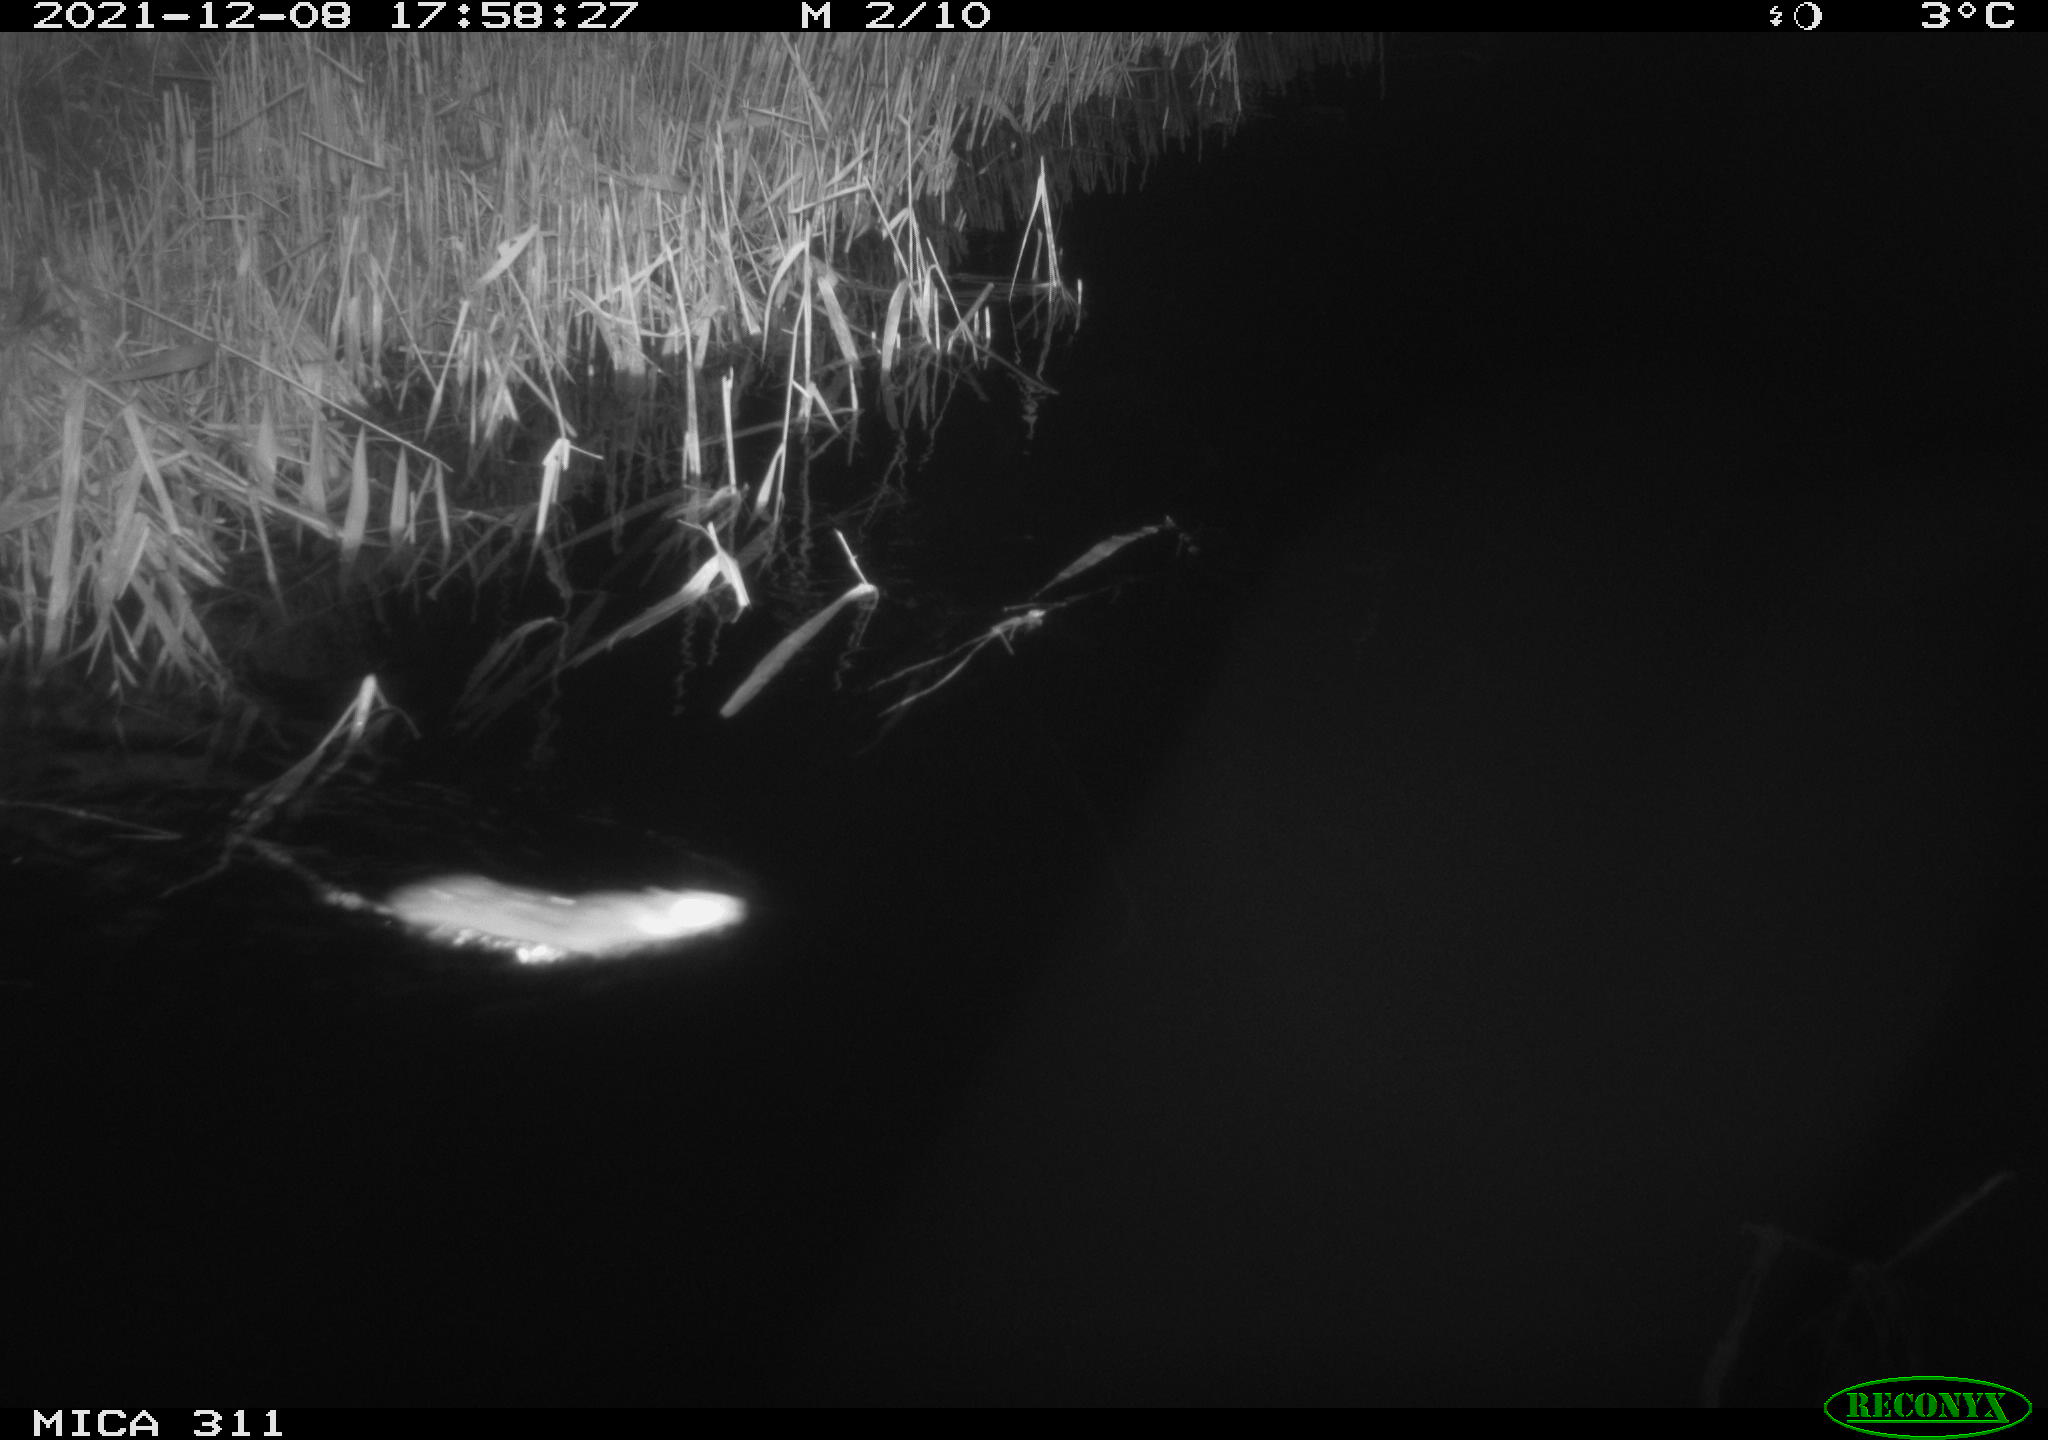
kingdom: Animalia
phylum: Chordata
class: Mammalia
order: Rodentia
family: Muridae
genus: Rattus
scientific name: Rattus norvegicus
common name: Brown rat
